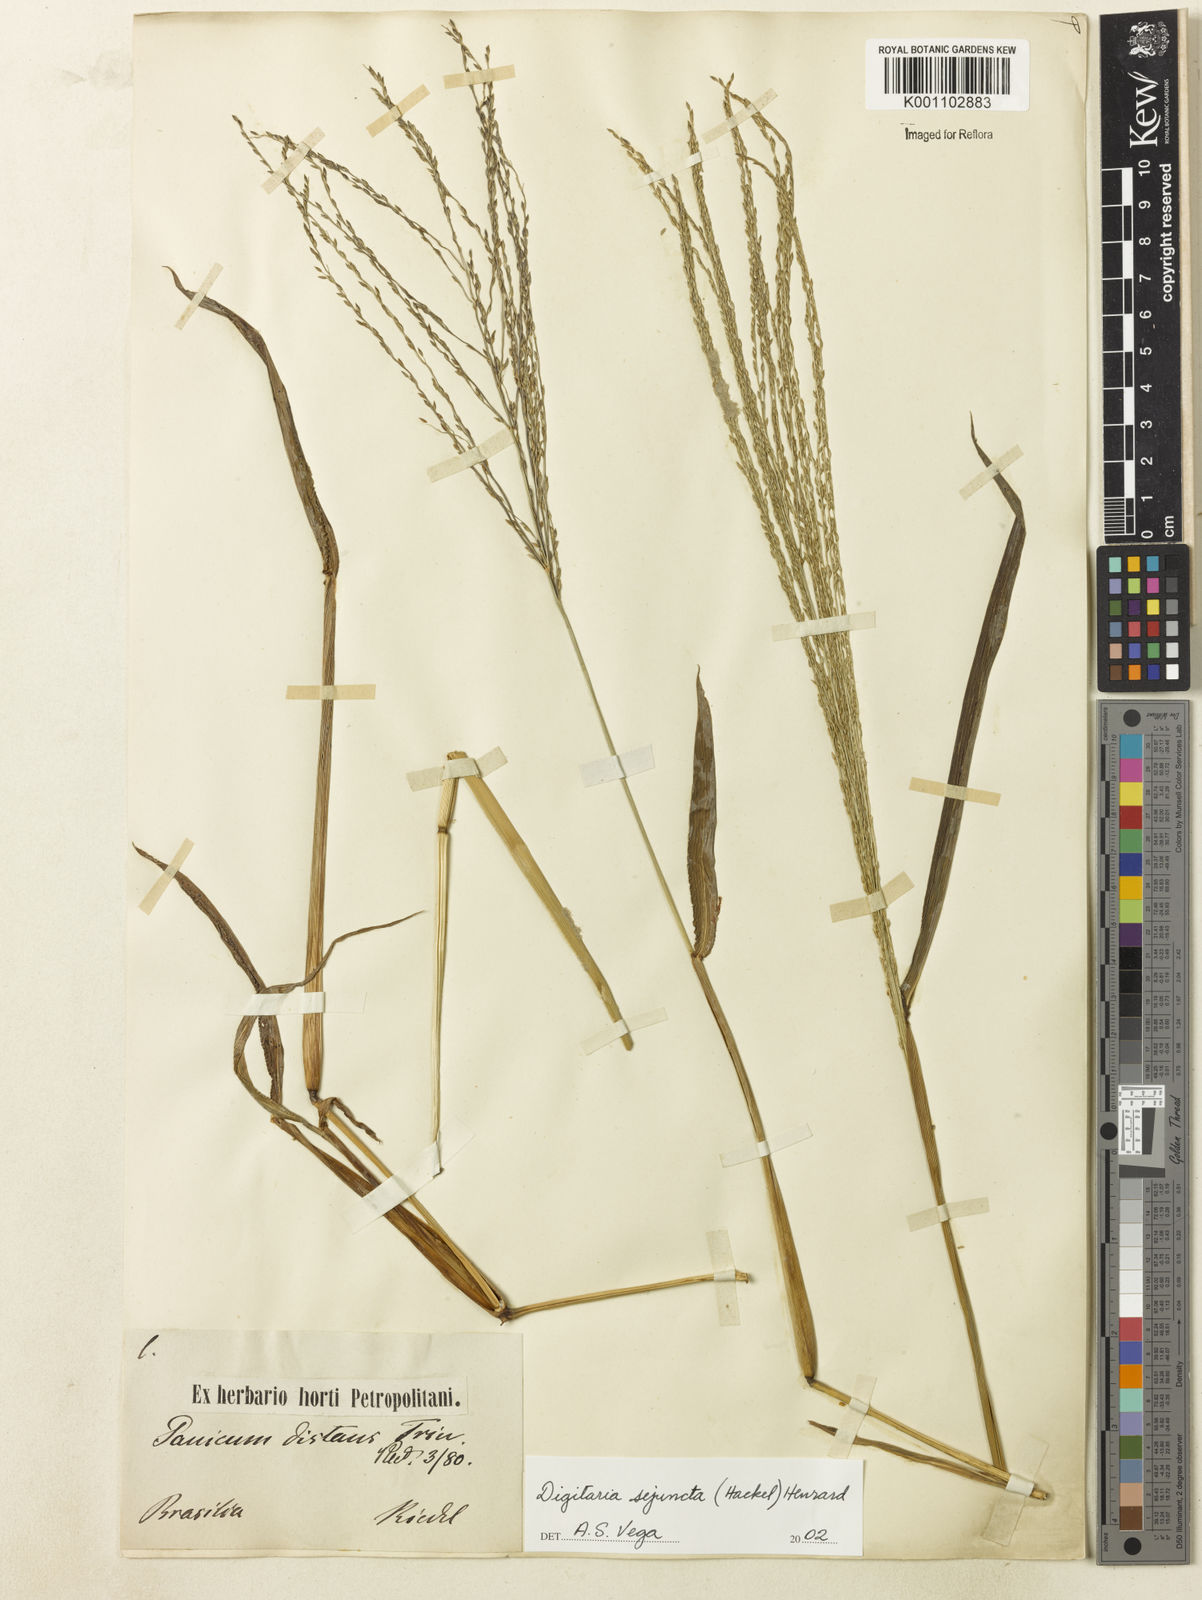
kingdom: Plantae
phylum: Tracheophyta
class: Liliopsida
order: Poales
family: Poaceae
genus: Digitaria
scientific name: Digitaria sejuncta
